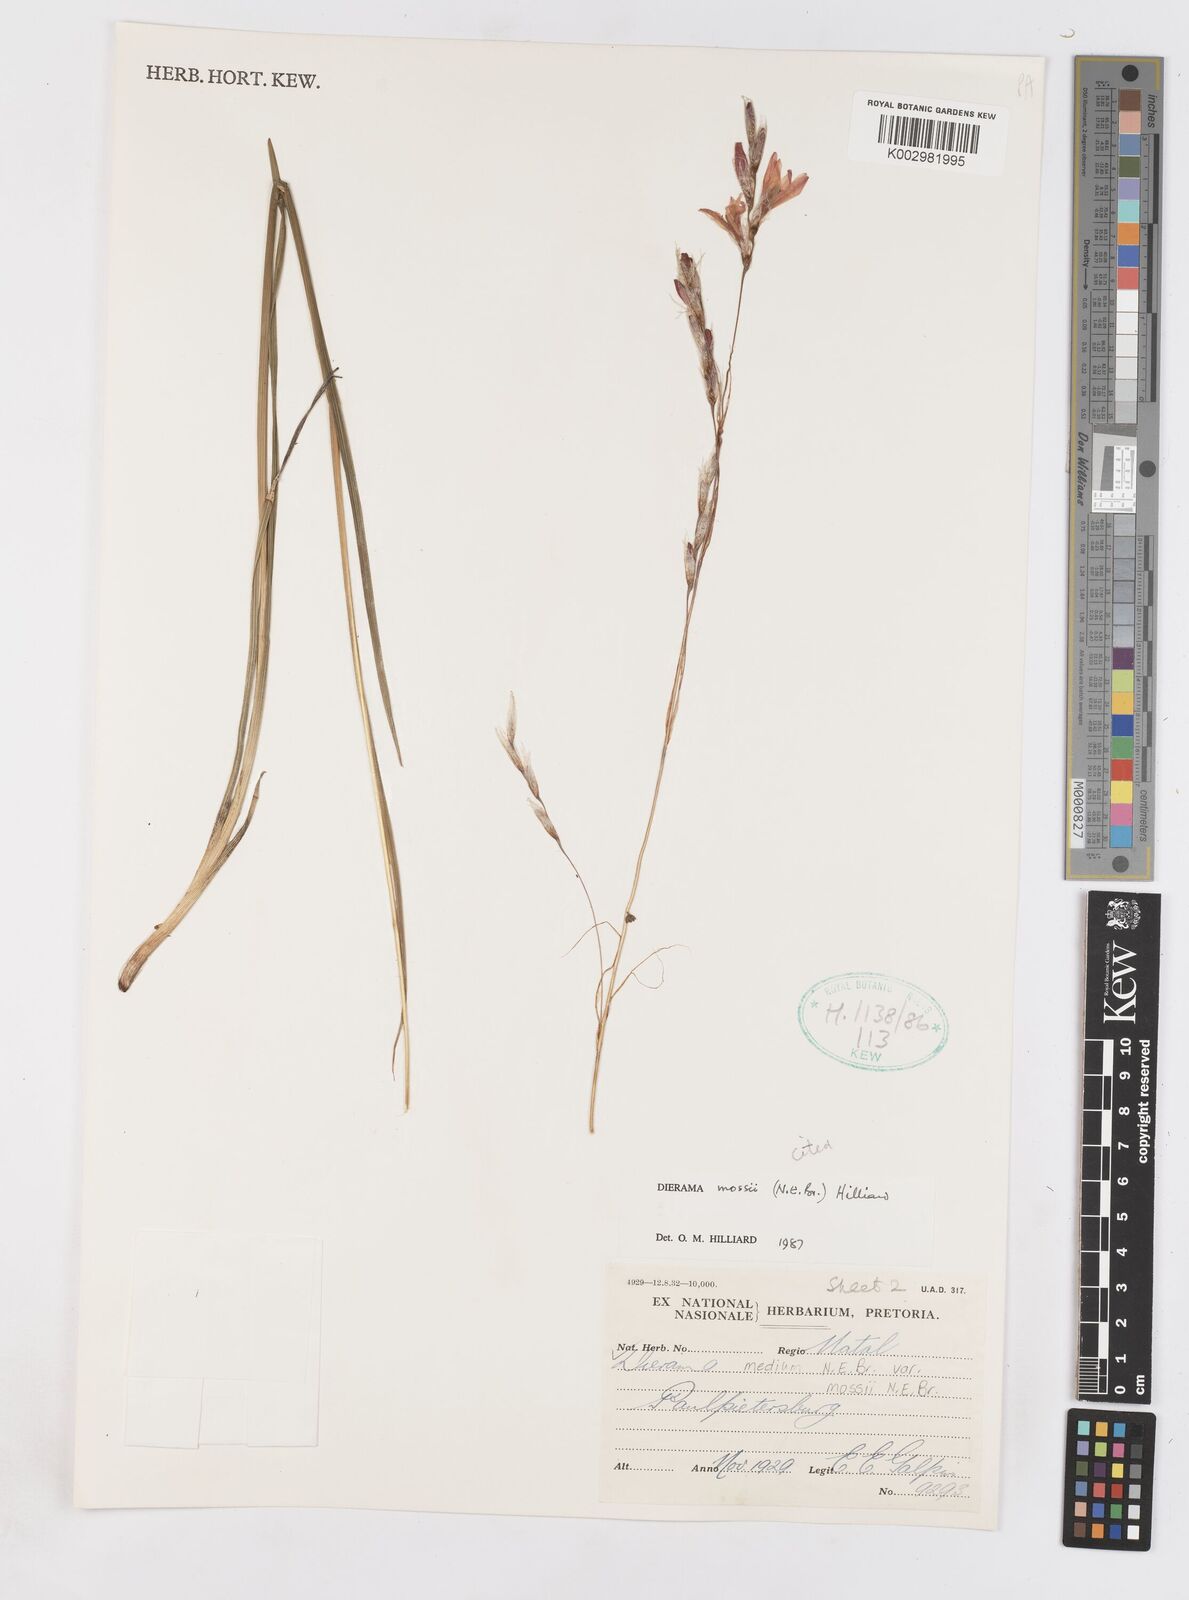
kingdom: Plantae
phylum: Tracheophyta
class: Liliopsida
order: Asparagales
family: Iridaceae
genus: Dierama
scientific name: Dierama mossii
